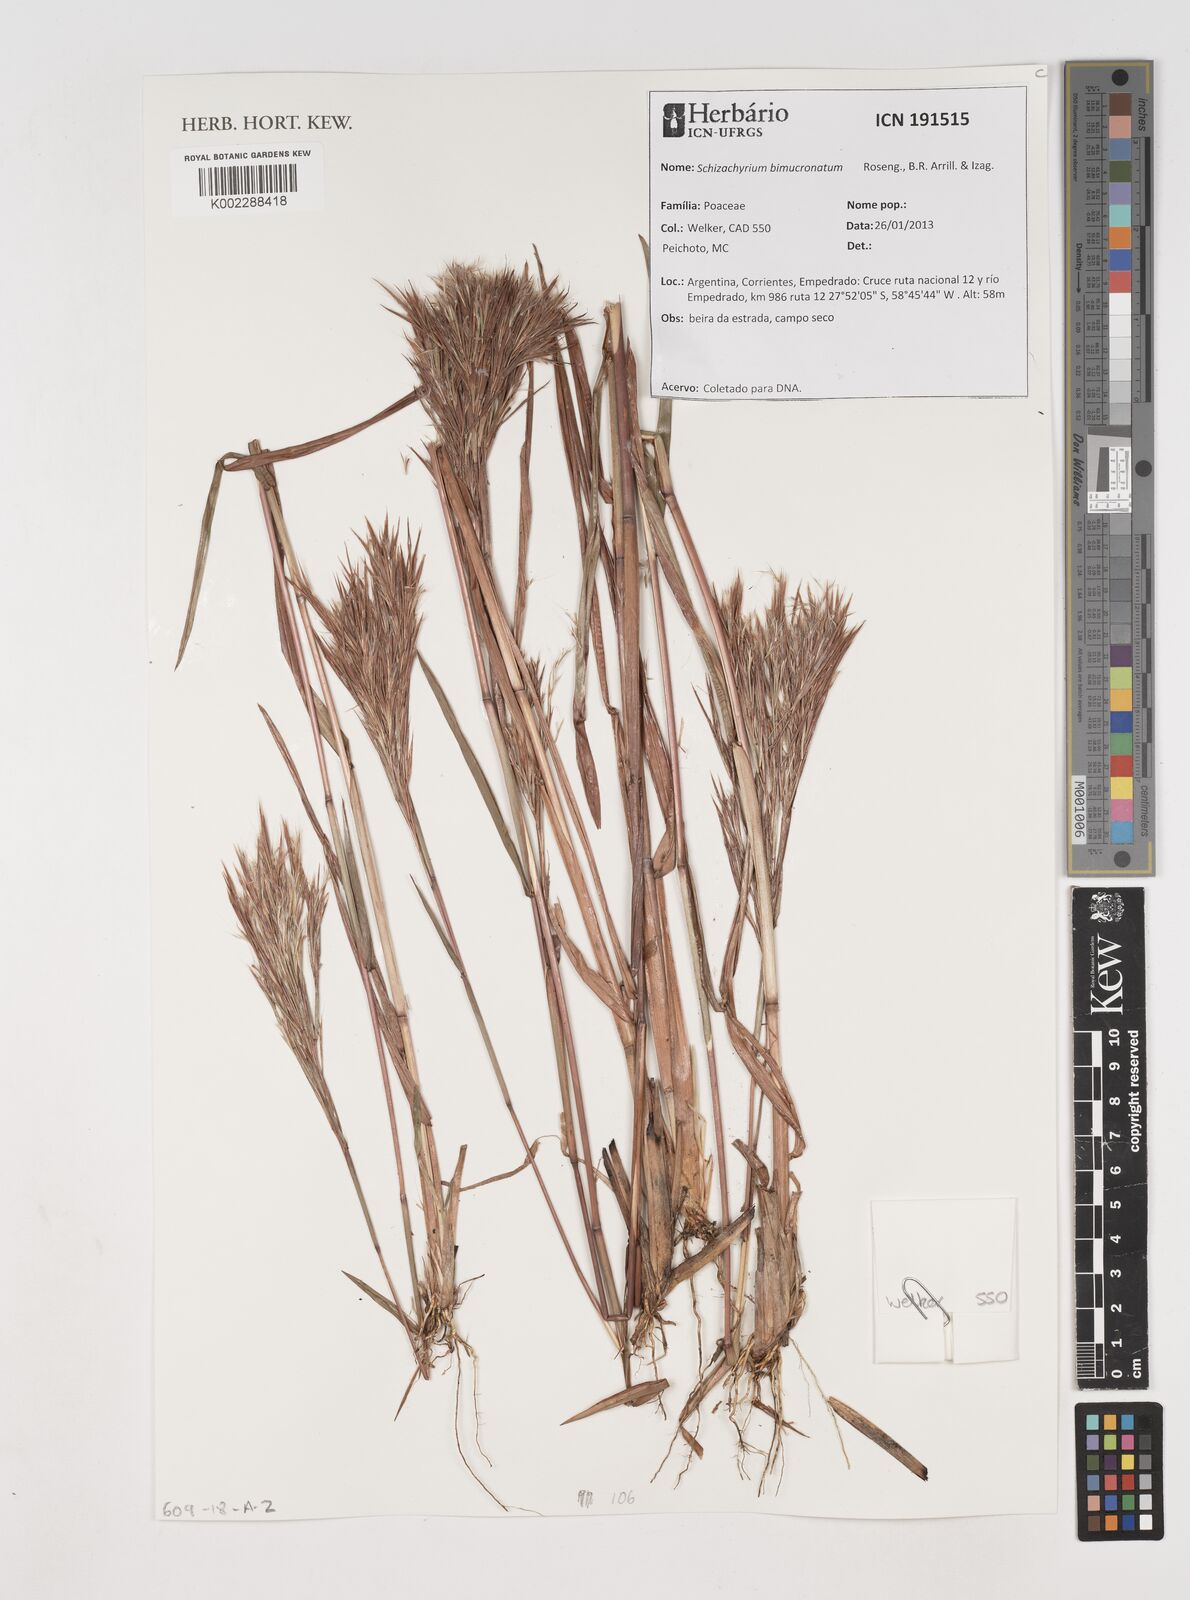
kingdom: Plantae
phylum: Tracheophyta
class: Liliopsida
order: Poales
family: Poaceae
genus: Schizachyrium
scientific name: Schizachyrium condensatum
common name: Bush beardgrass
